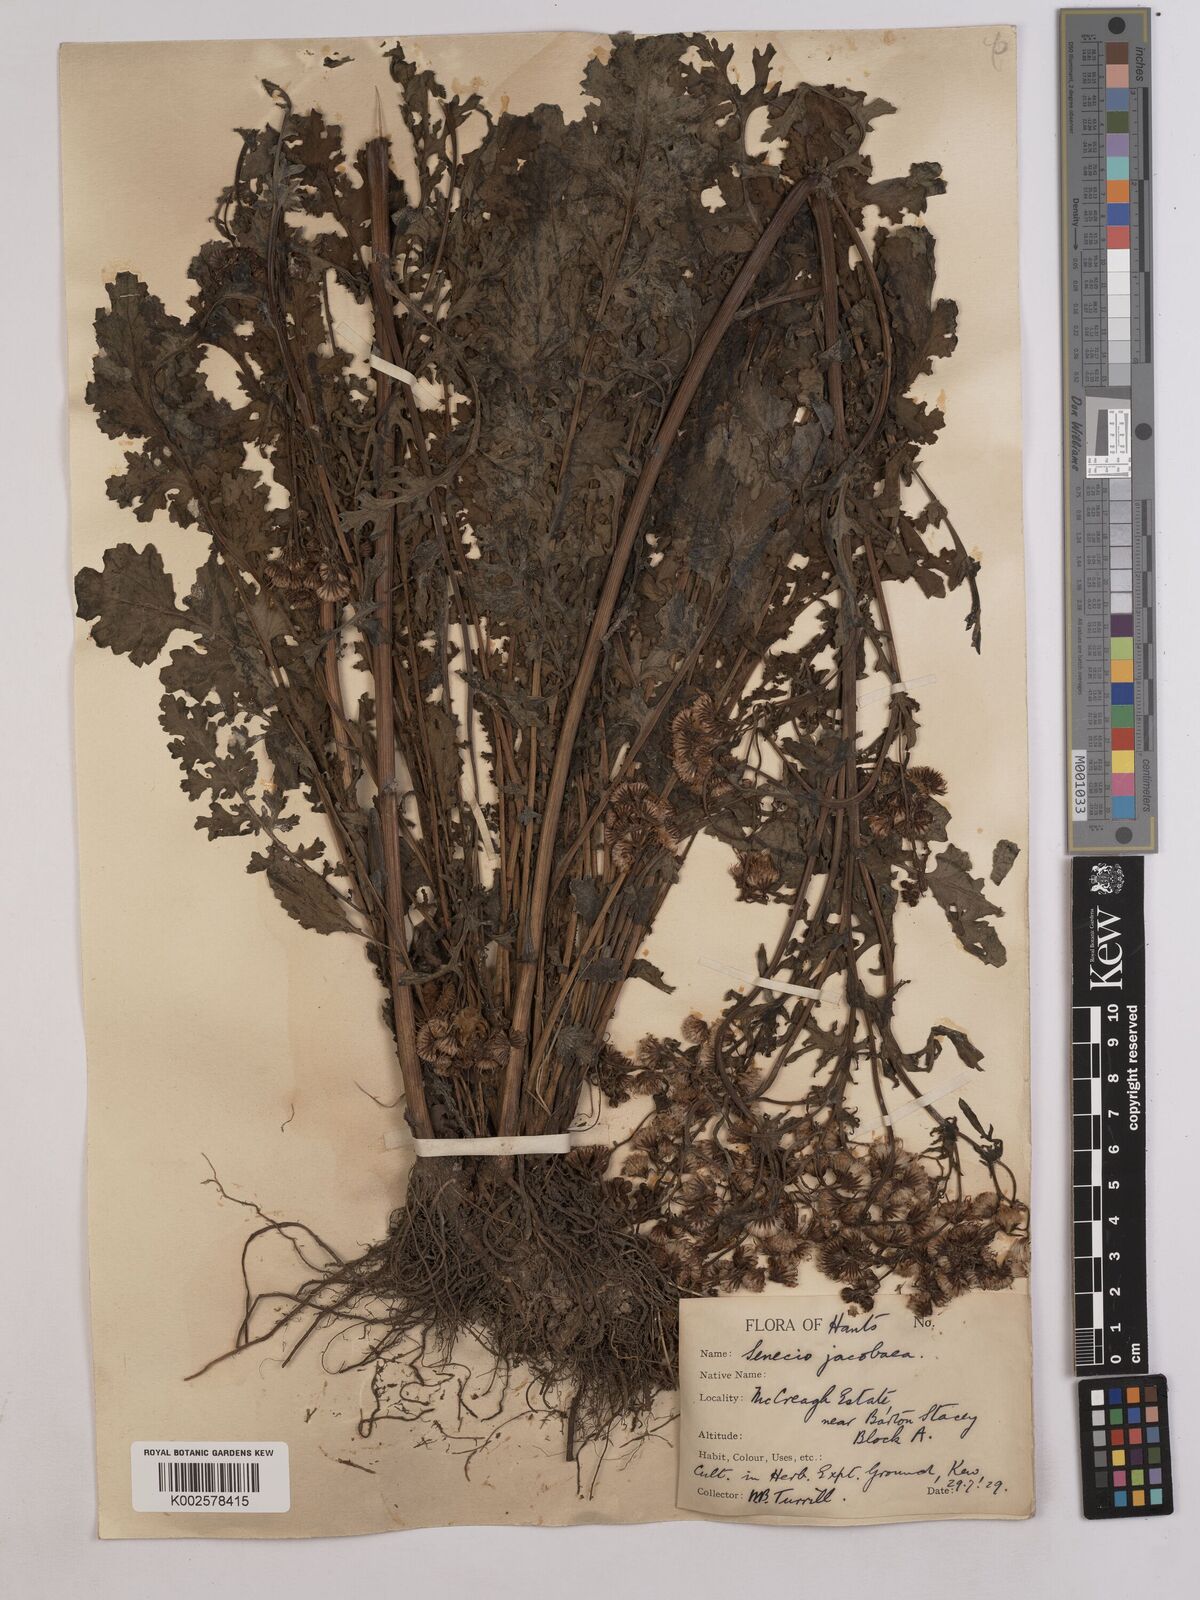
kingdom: Plantae
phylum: Tracheophyta
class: Magnoliopsida
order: Asterales
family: Asteraceae
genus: Jacobaea
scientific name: Jacobaea vulgaris
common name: Stinking willie
